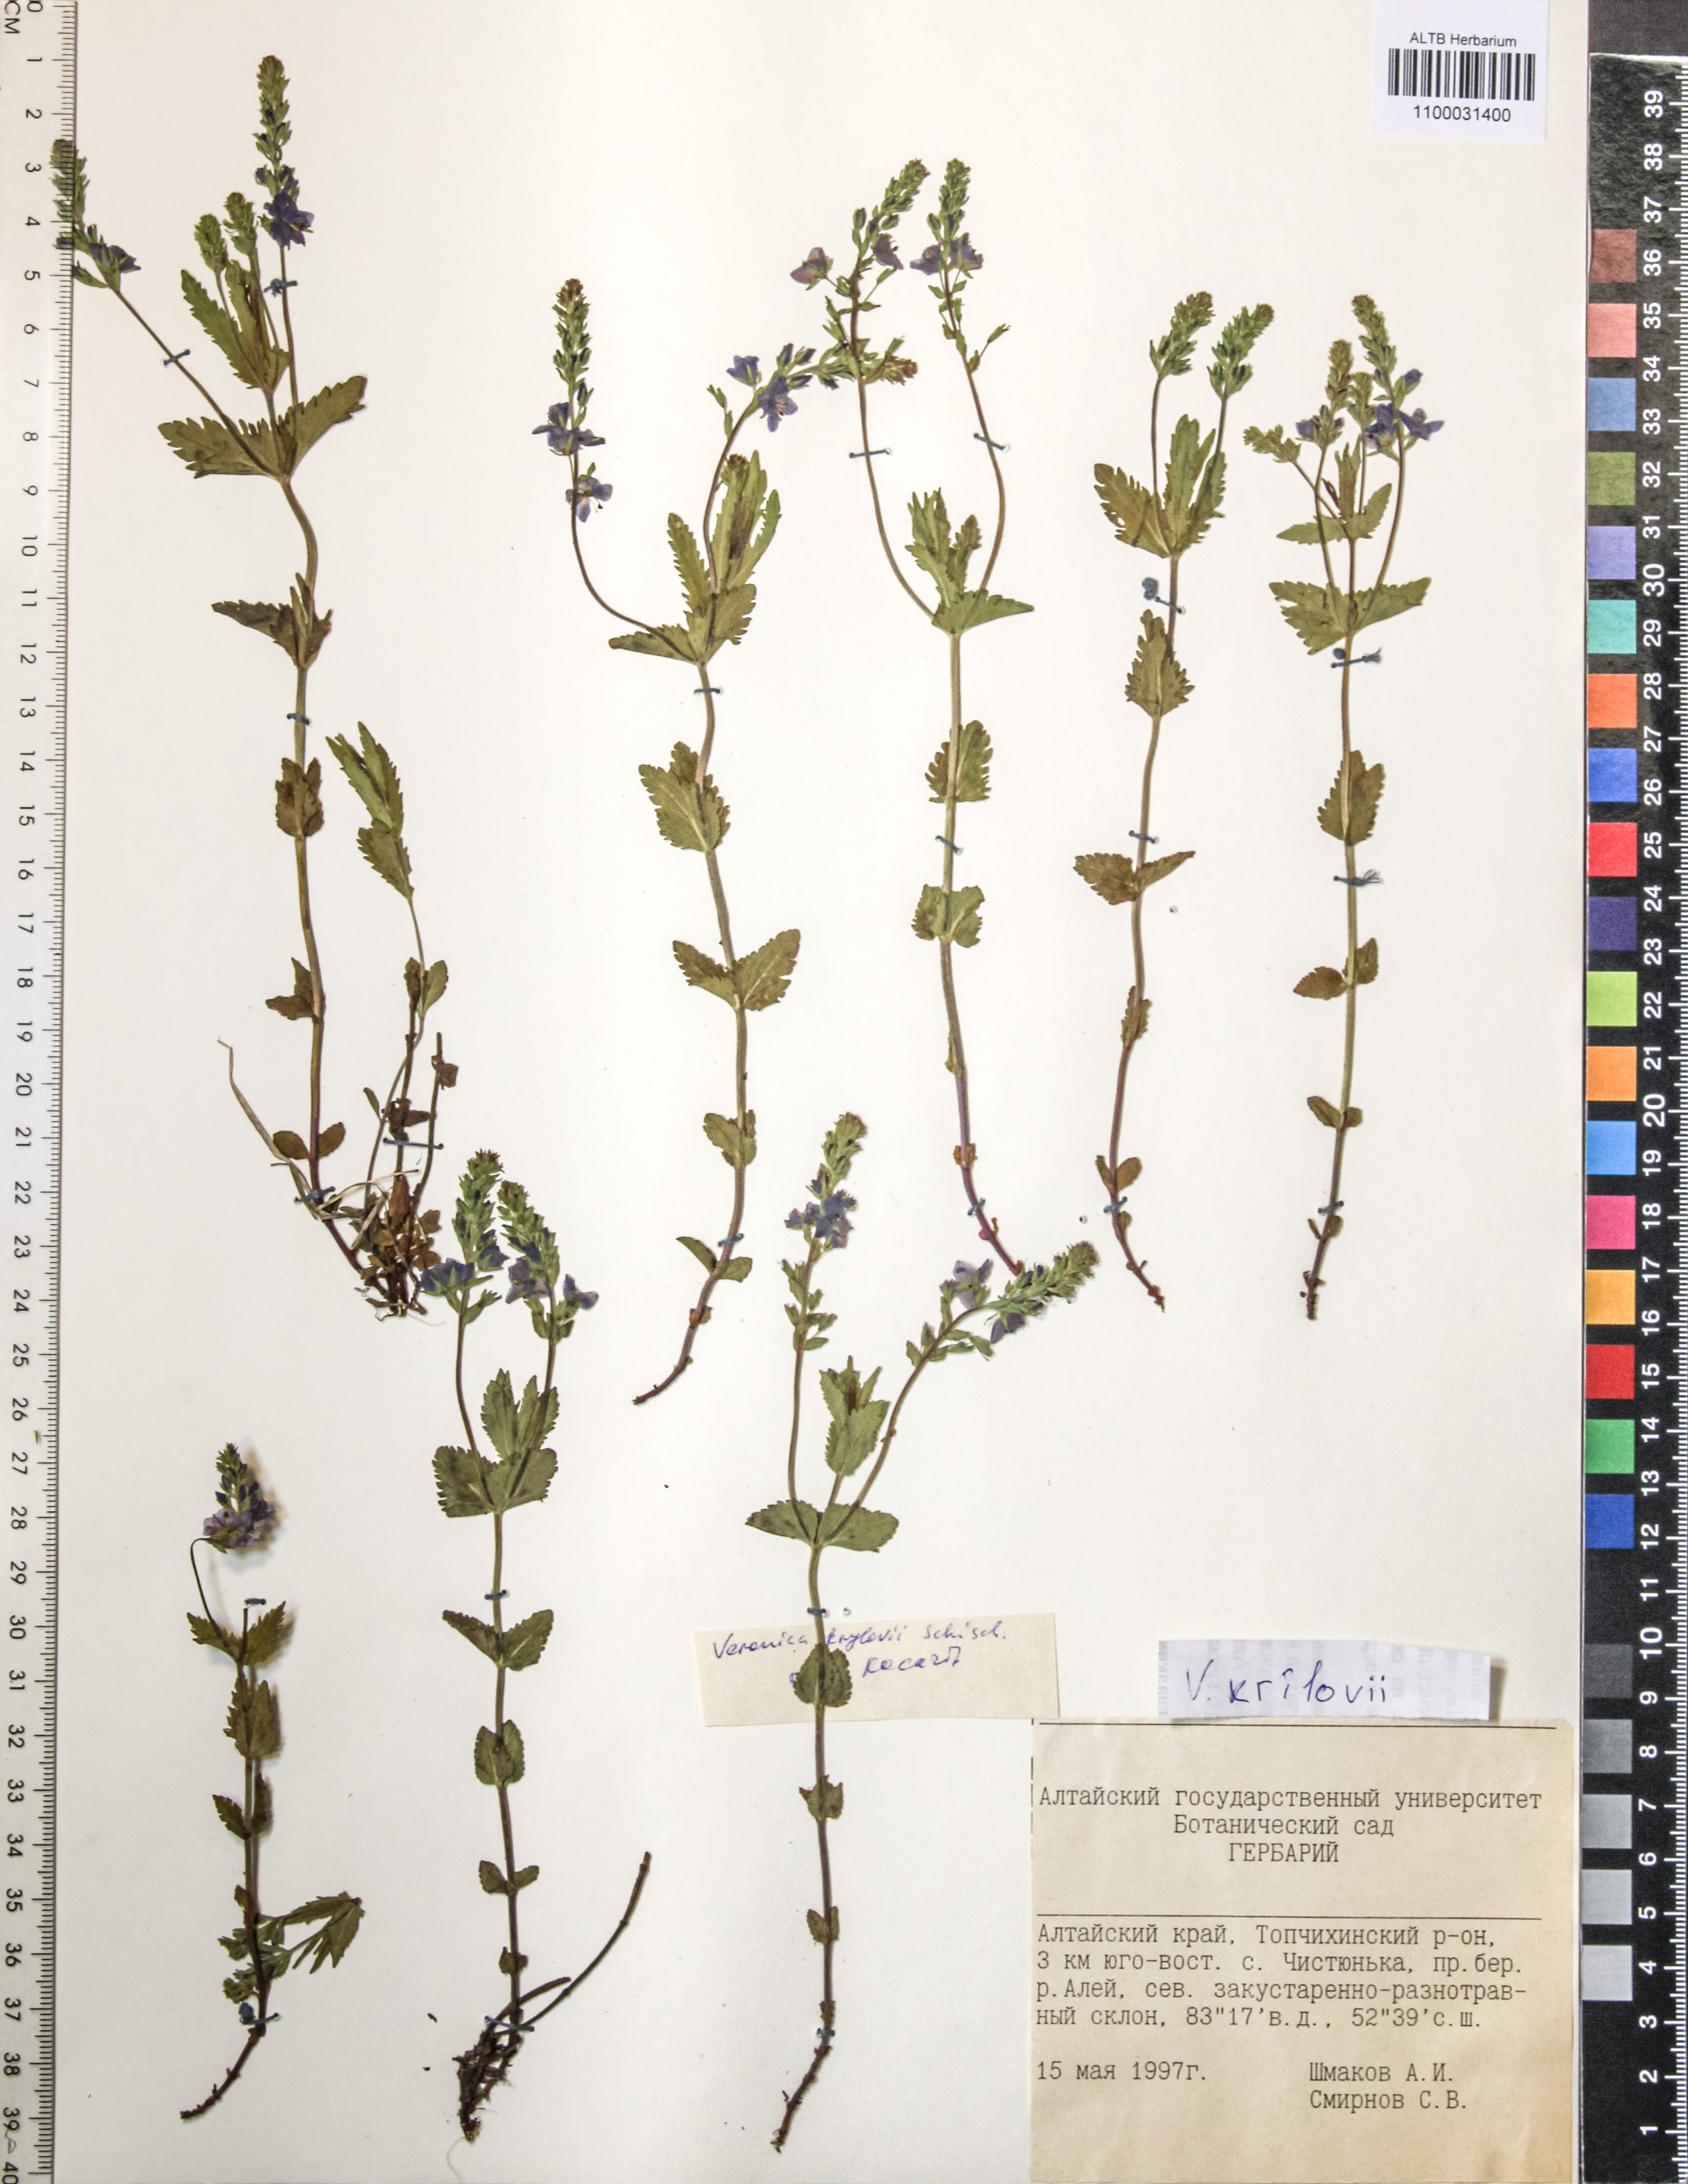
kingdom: Plantae
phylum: Tracheophyta
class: Magnoliopsida
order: Lamiales
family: Plantaginaceae
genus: Veronica
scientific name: Veronica krylovii
